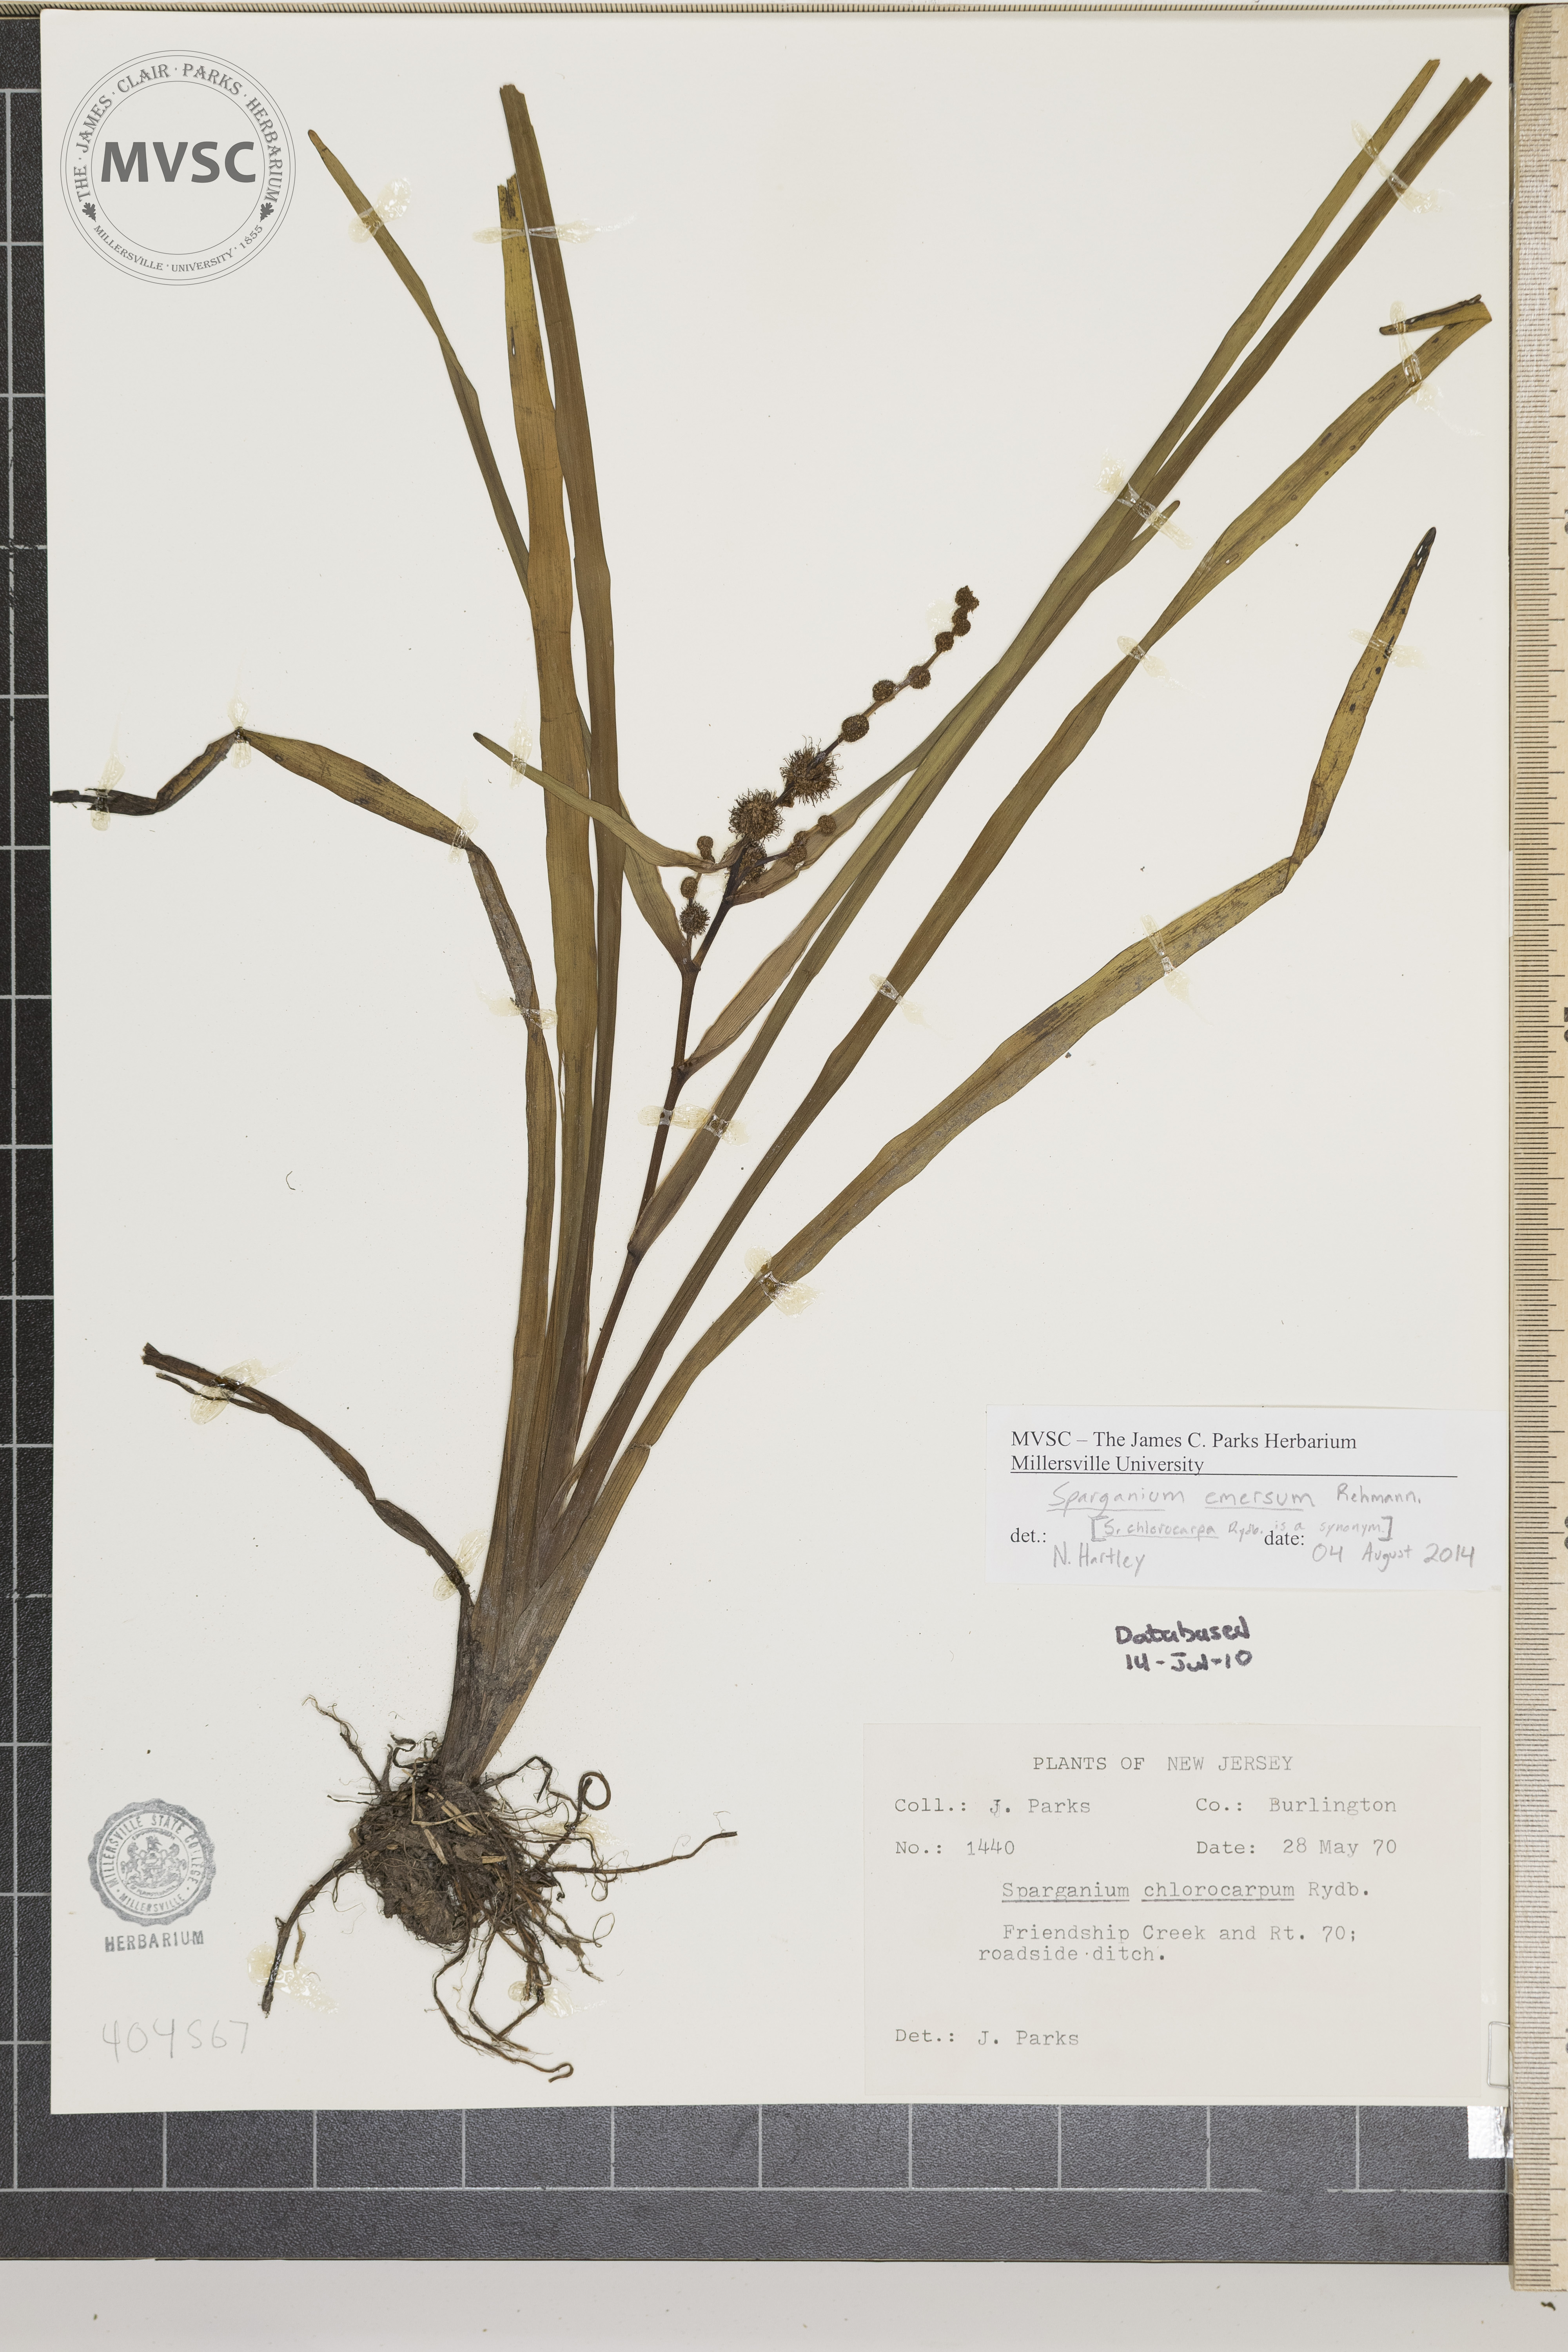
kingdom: Plantae
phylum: Tracheophyta
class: Liliopsida
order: Poales
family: Typhaceae
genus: Sparganium
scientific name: Sparganium americanum
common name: American burreed
